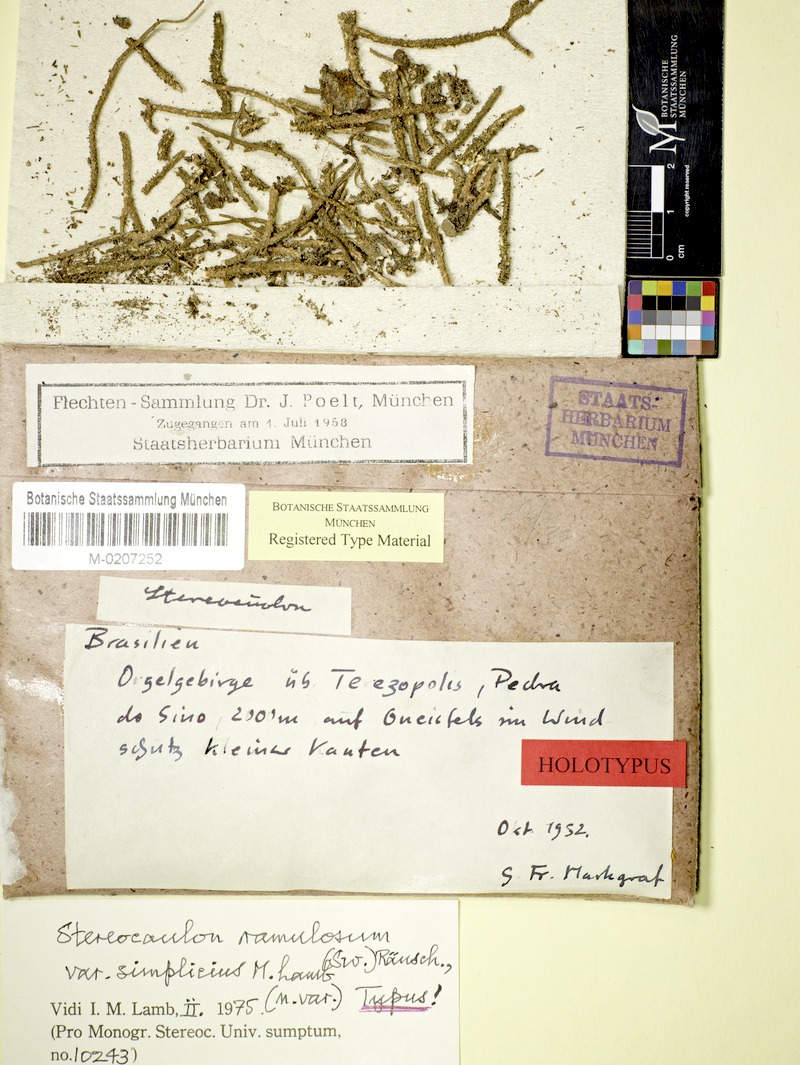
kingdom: Fungi
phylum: Ascomycota
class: Lecanoromycetes
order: Lecanorales
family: Stereocaulaceae
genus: Stereocaulon
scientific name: Stereocaulon ramulosum
